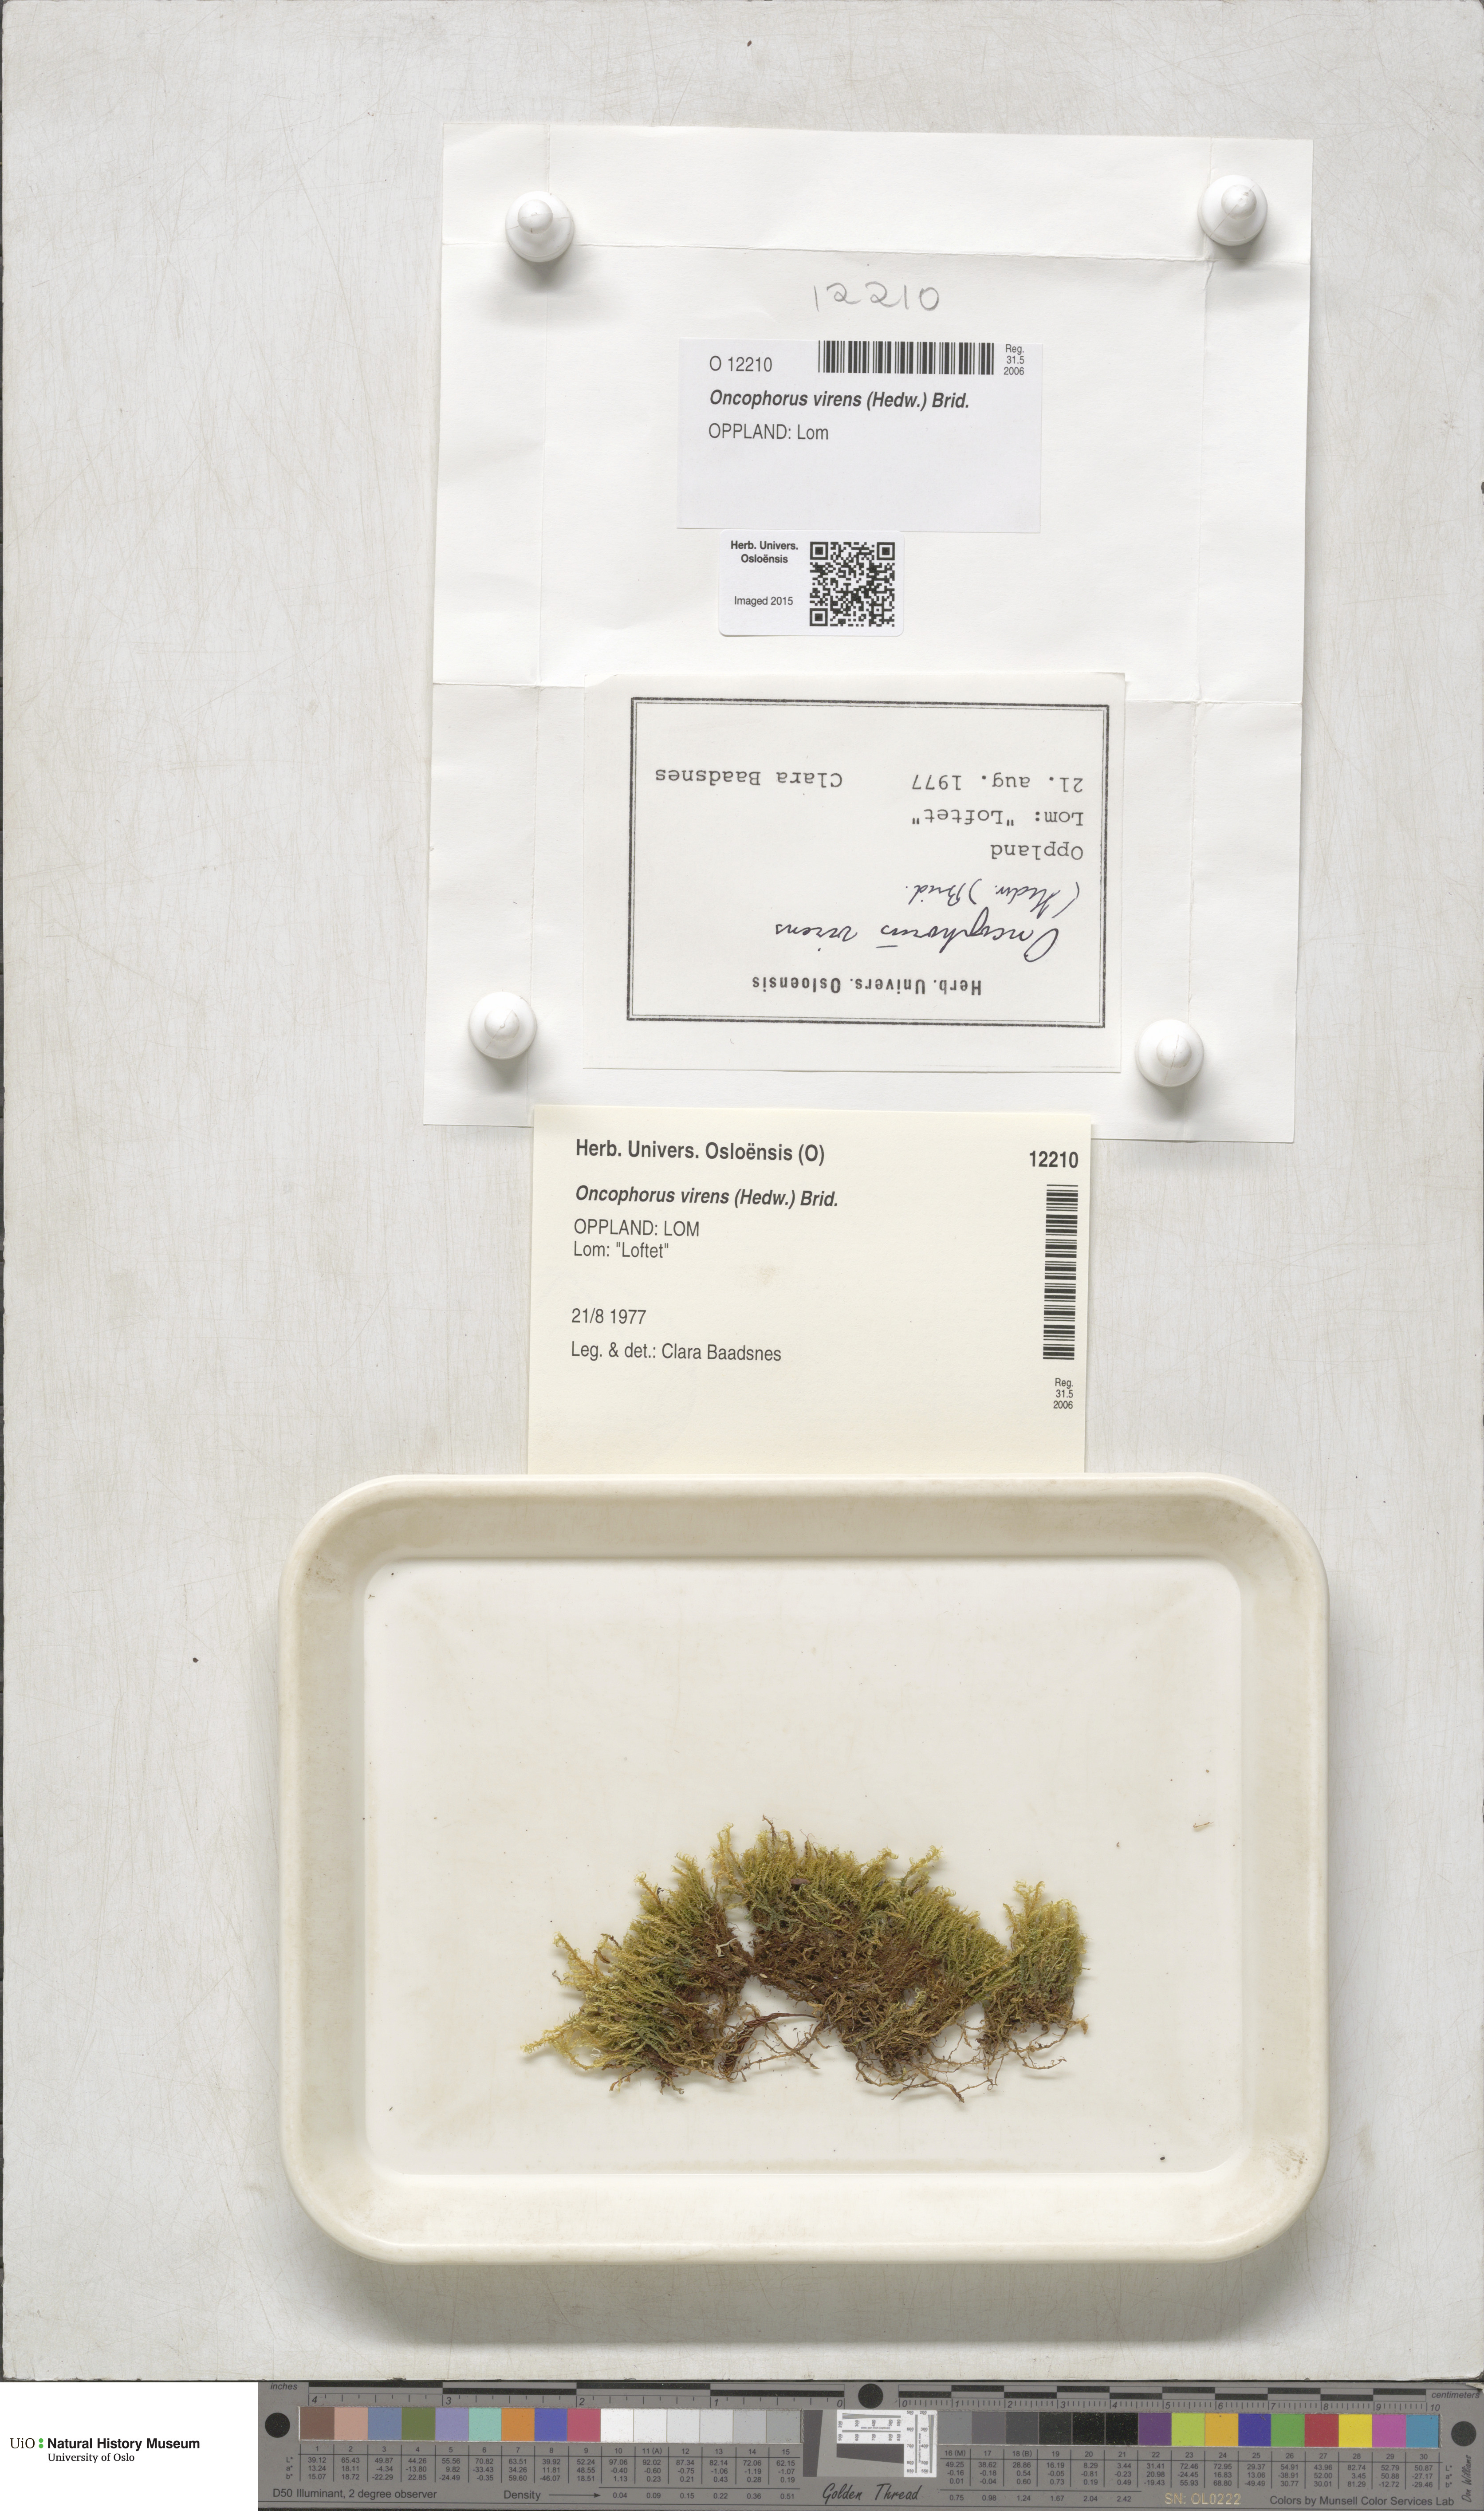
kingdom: Plantae
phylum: Bryophyta
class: Bryopsida
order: Dicranales
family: Rhabdoweisiaceae
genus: Oncophorus
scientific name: Oncophorus virens
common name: Green spur moss
